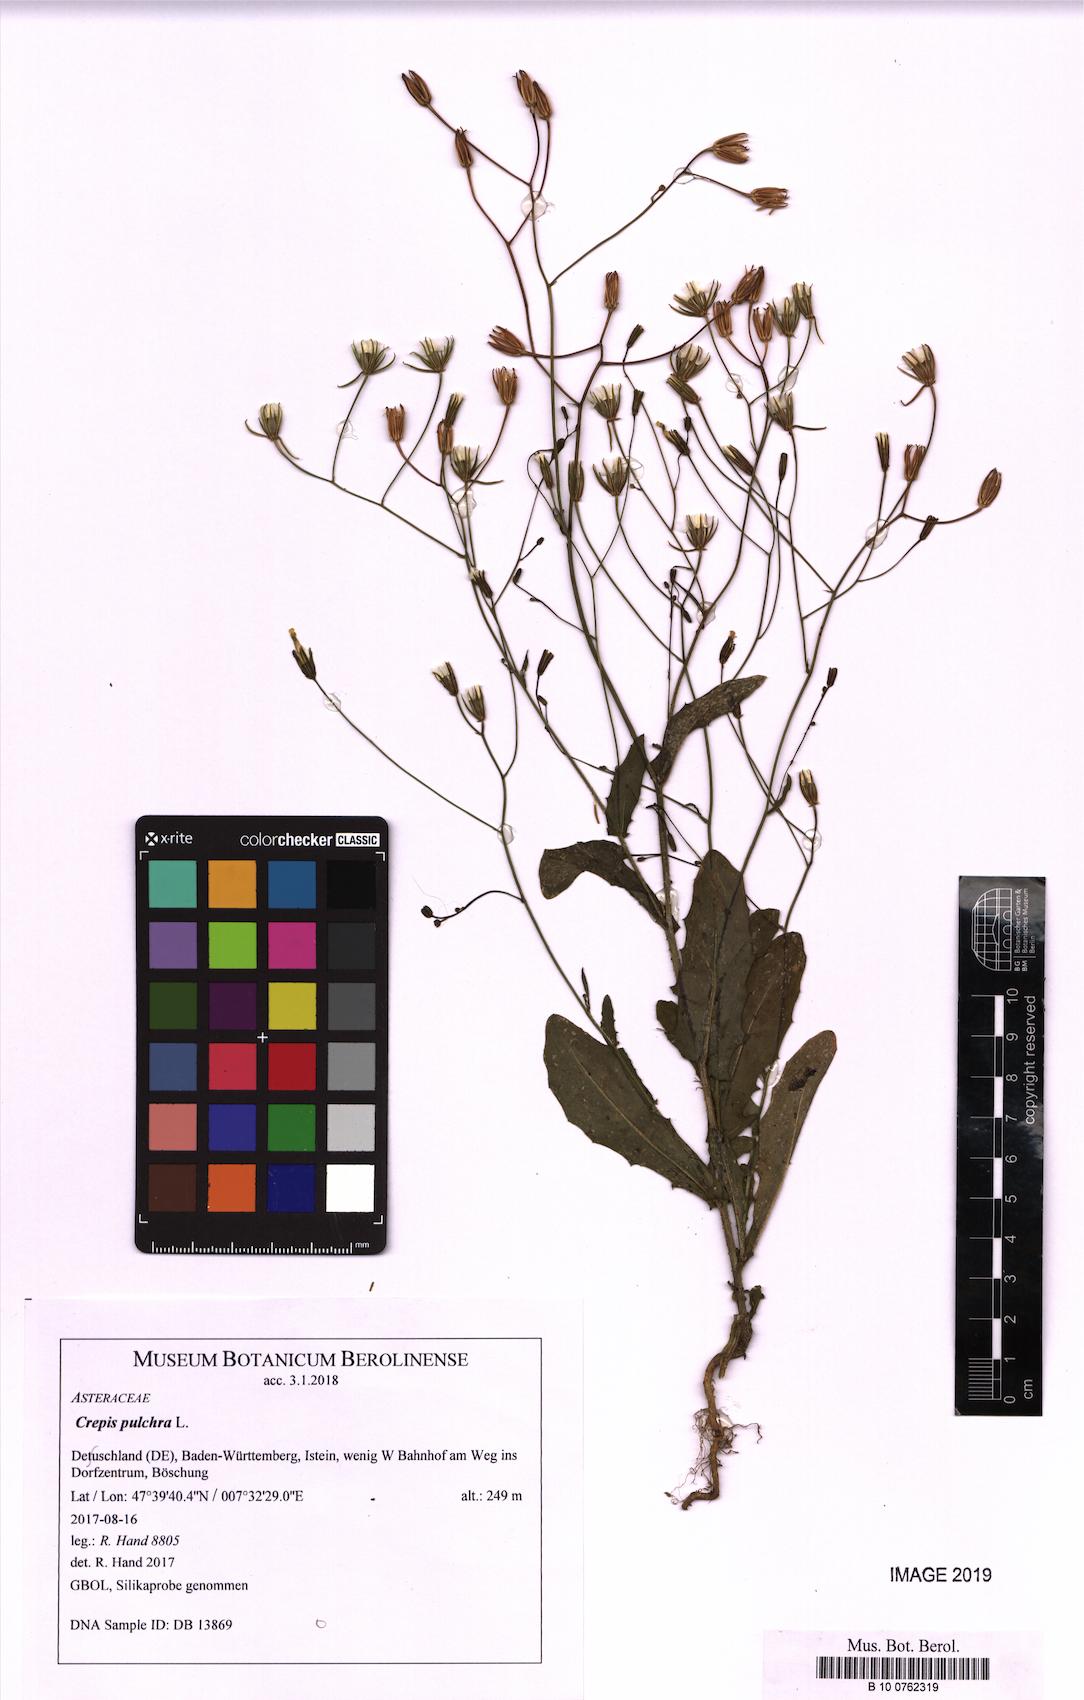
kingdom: Plantae
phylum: Tracheophyta
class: Magnoliopsida
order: Asterales
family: Asteraceae
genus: Crepis
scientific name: Crepis pulchra
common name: Hawk's-beard
